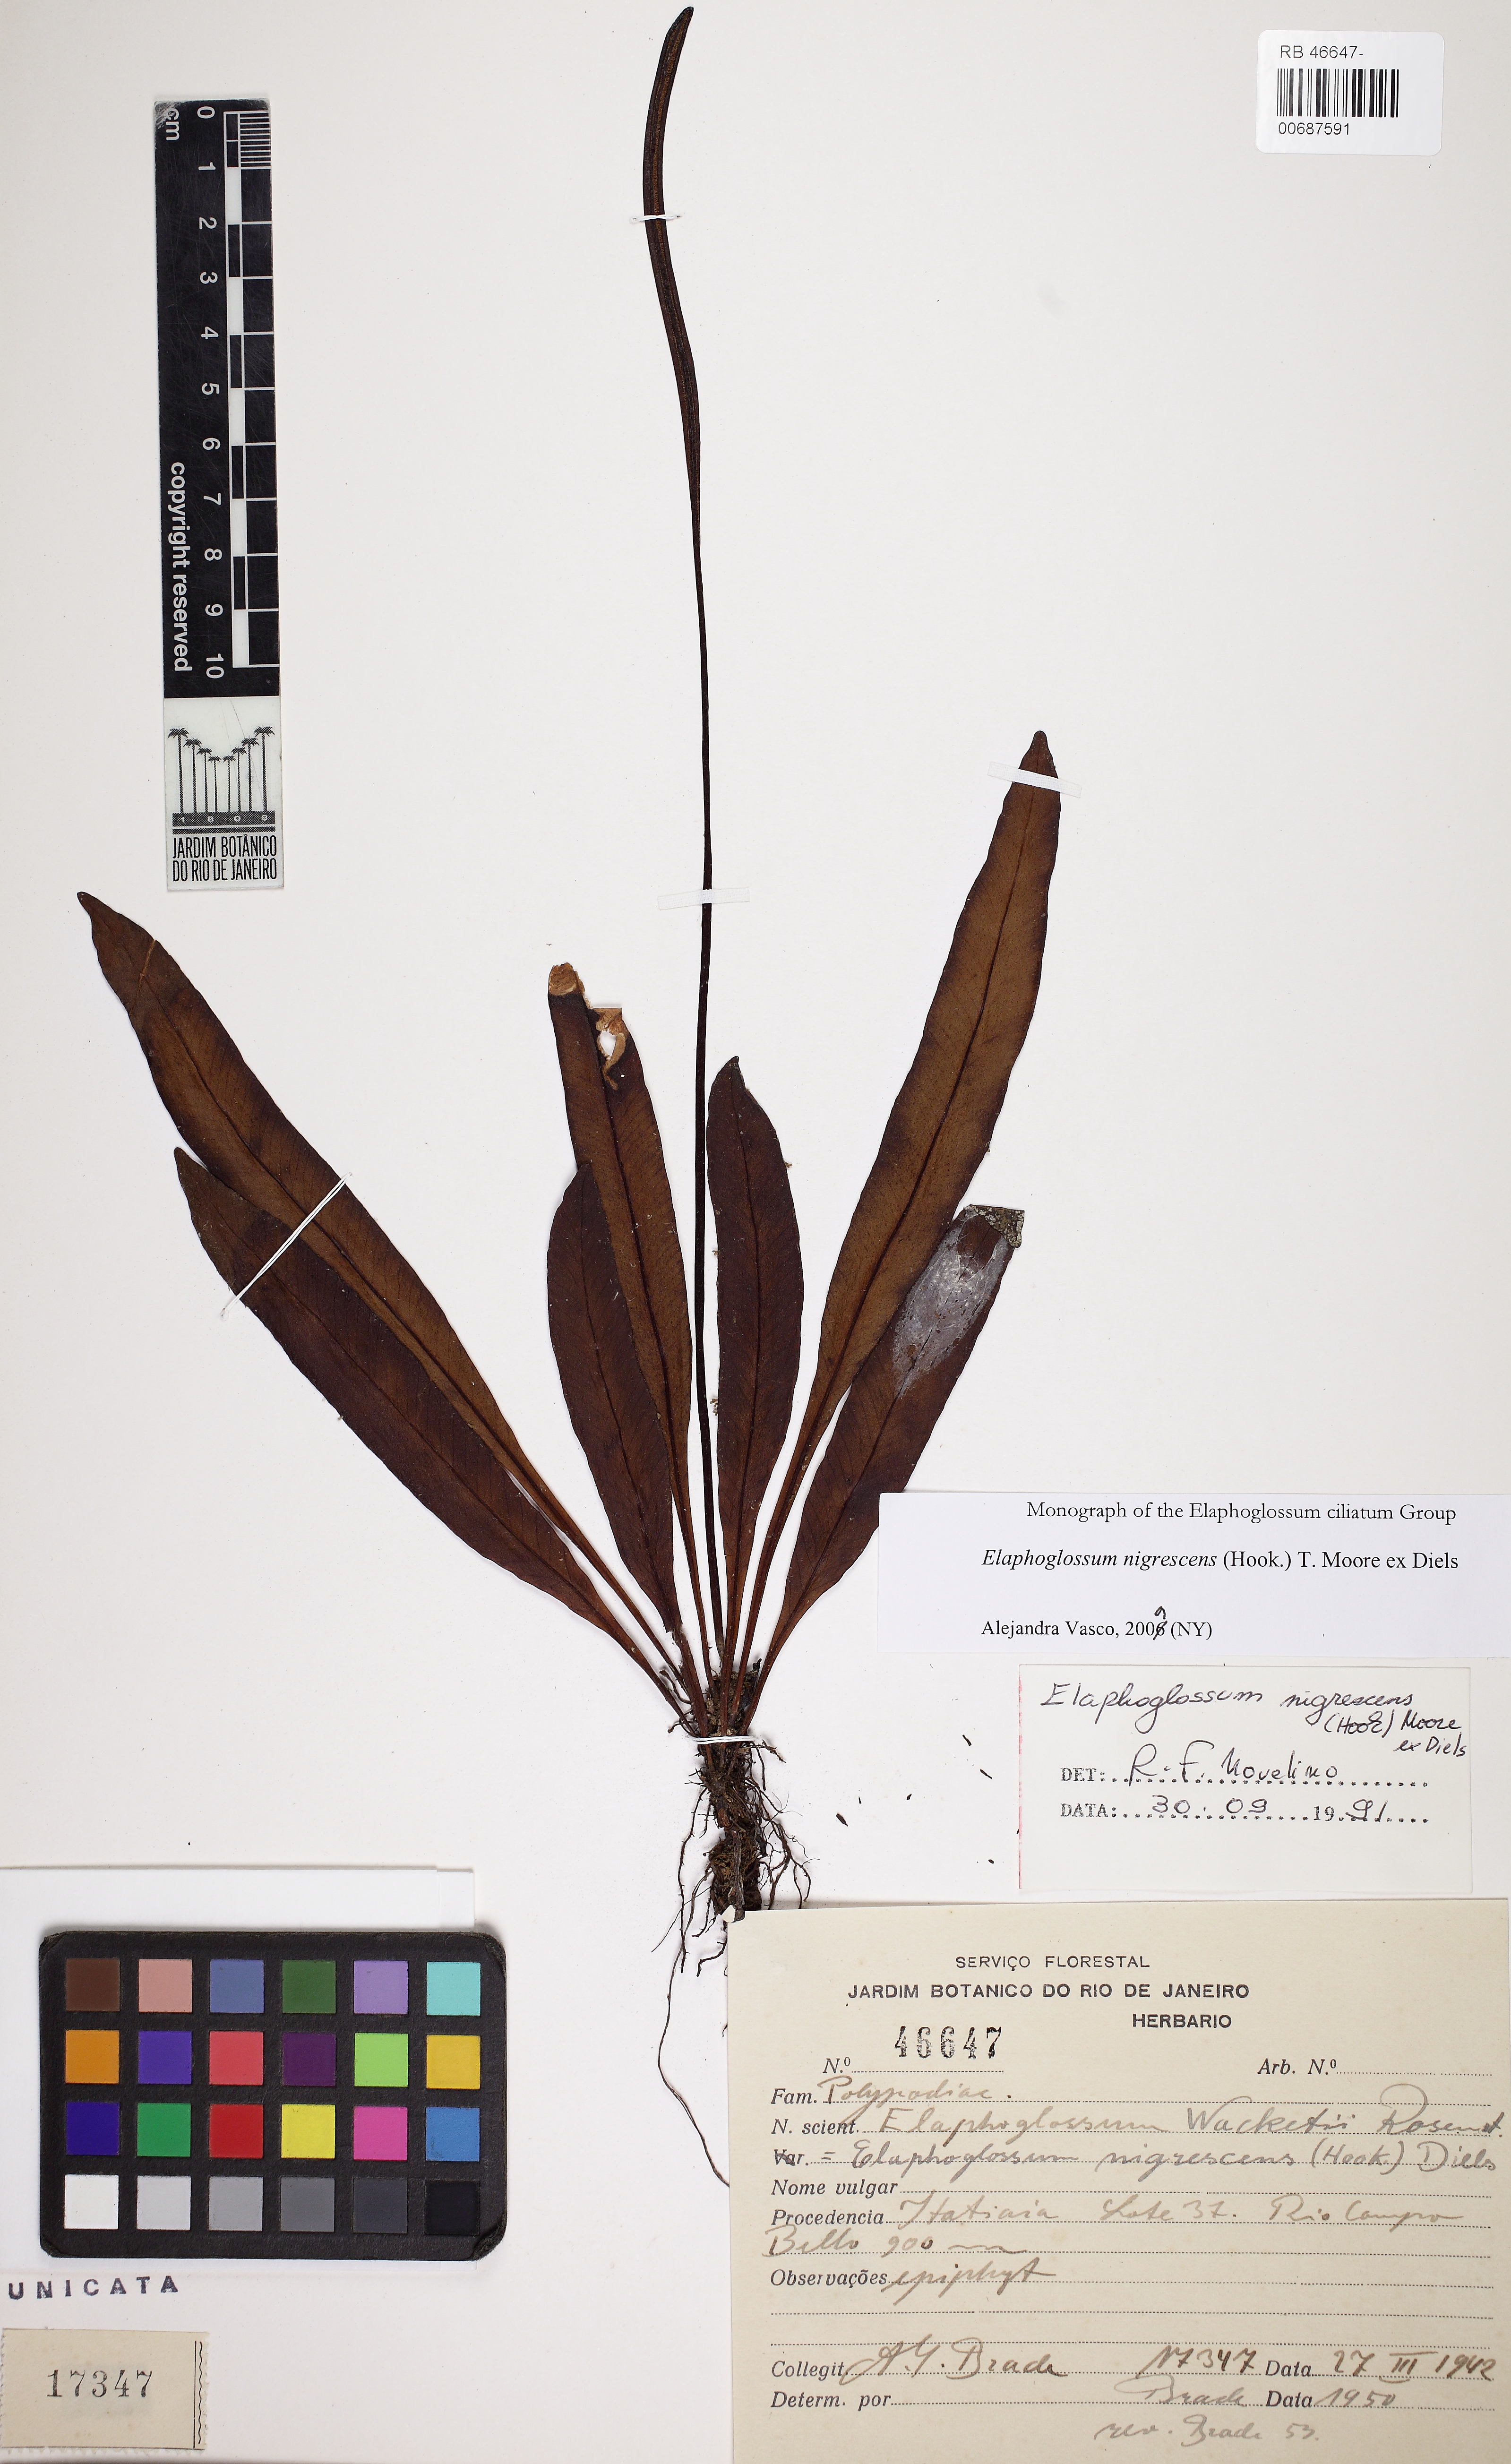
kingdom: Plantae
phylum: Tracheophyta
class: Polypodiopsida
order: Polypodiales
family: Dryopteridaceae
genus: Elaphoglossum
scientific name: Elaphoglossum nigrescens
